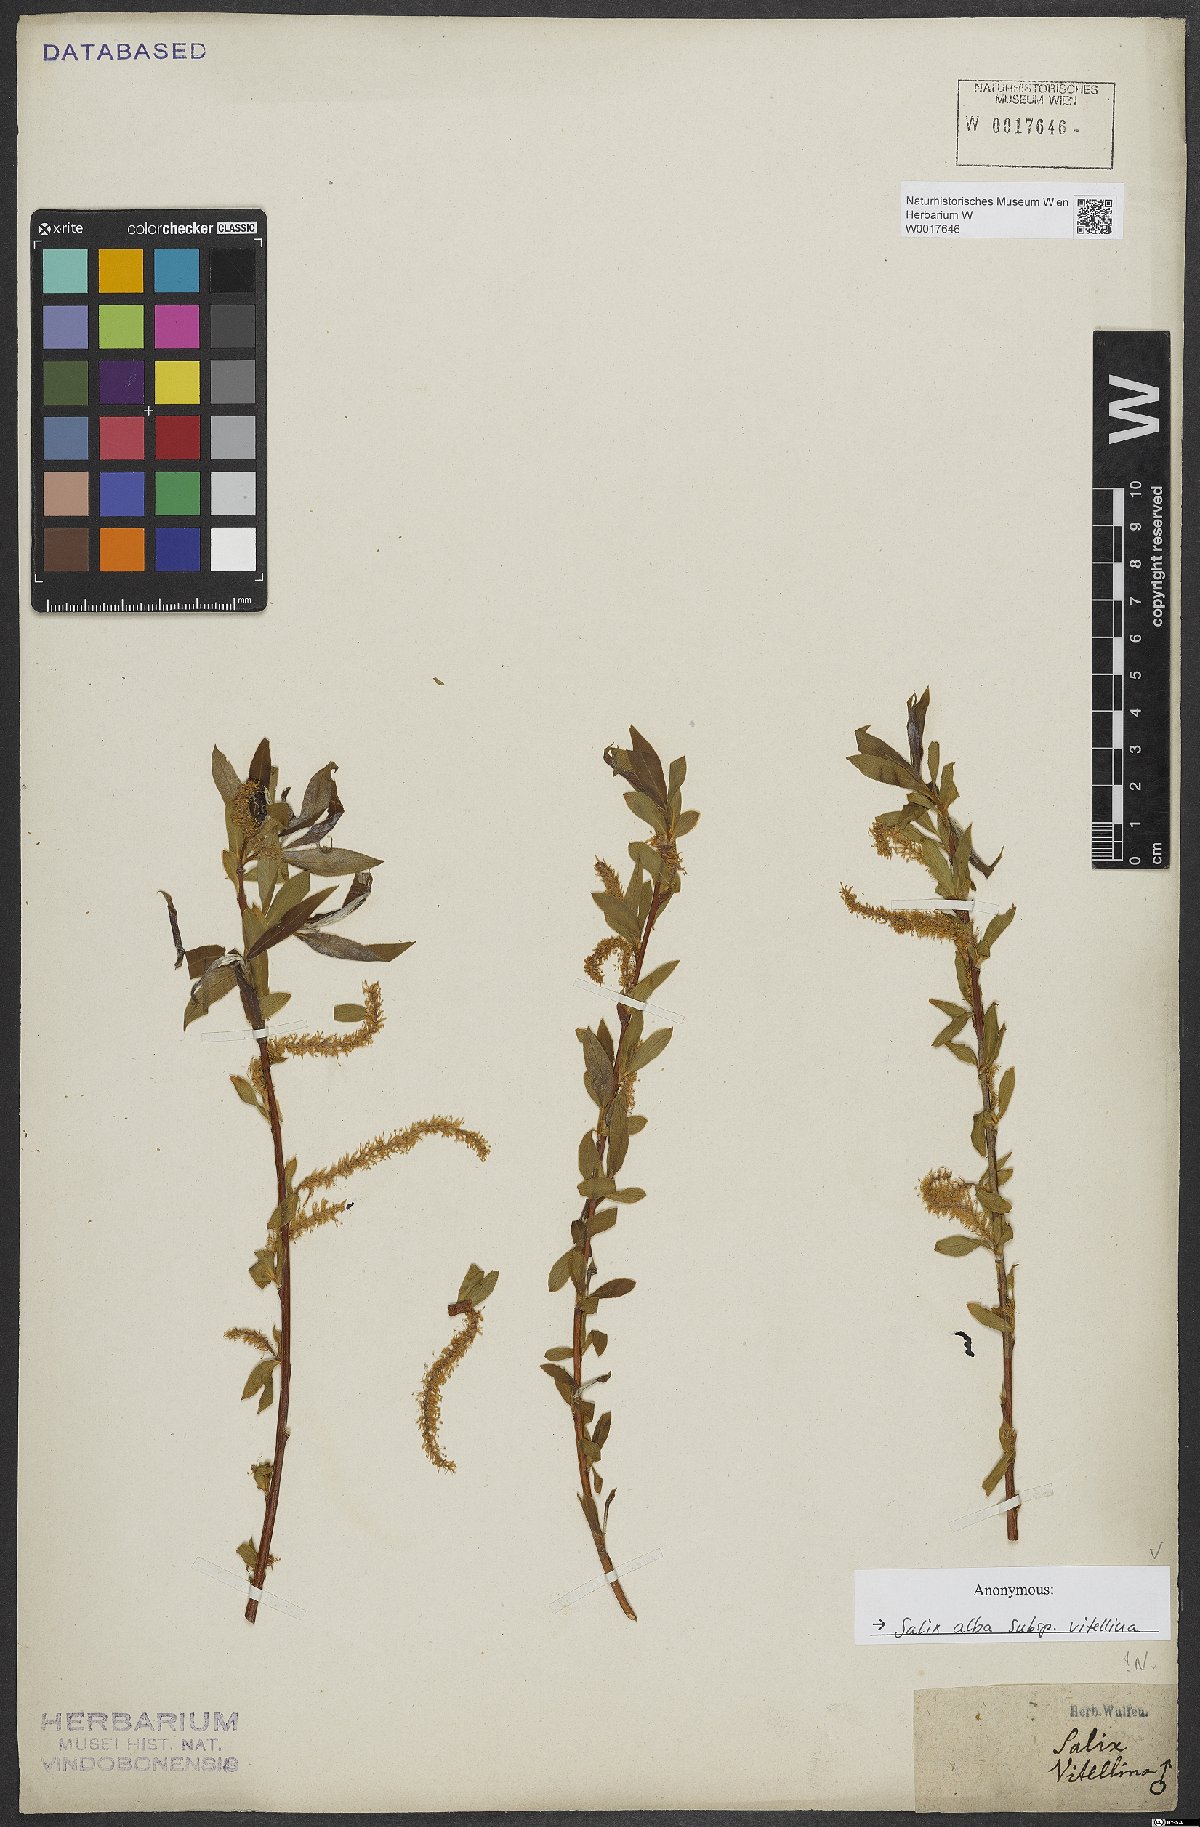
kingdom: Plantae
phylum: Tracheophyta
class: Magnoliopsida
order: Malpighiales
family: Salicaceae
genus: Salix
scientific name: Salix alba
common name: White willow
